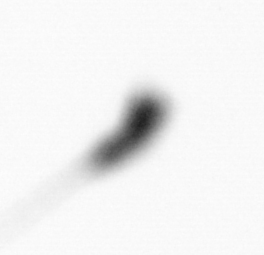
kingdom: Animalia
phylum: Arthropoda
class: Copepoda
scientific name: Copepoda
